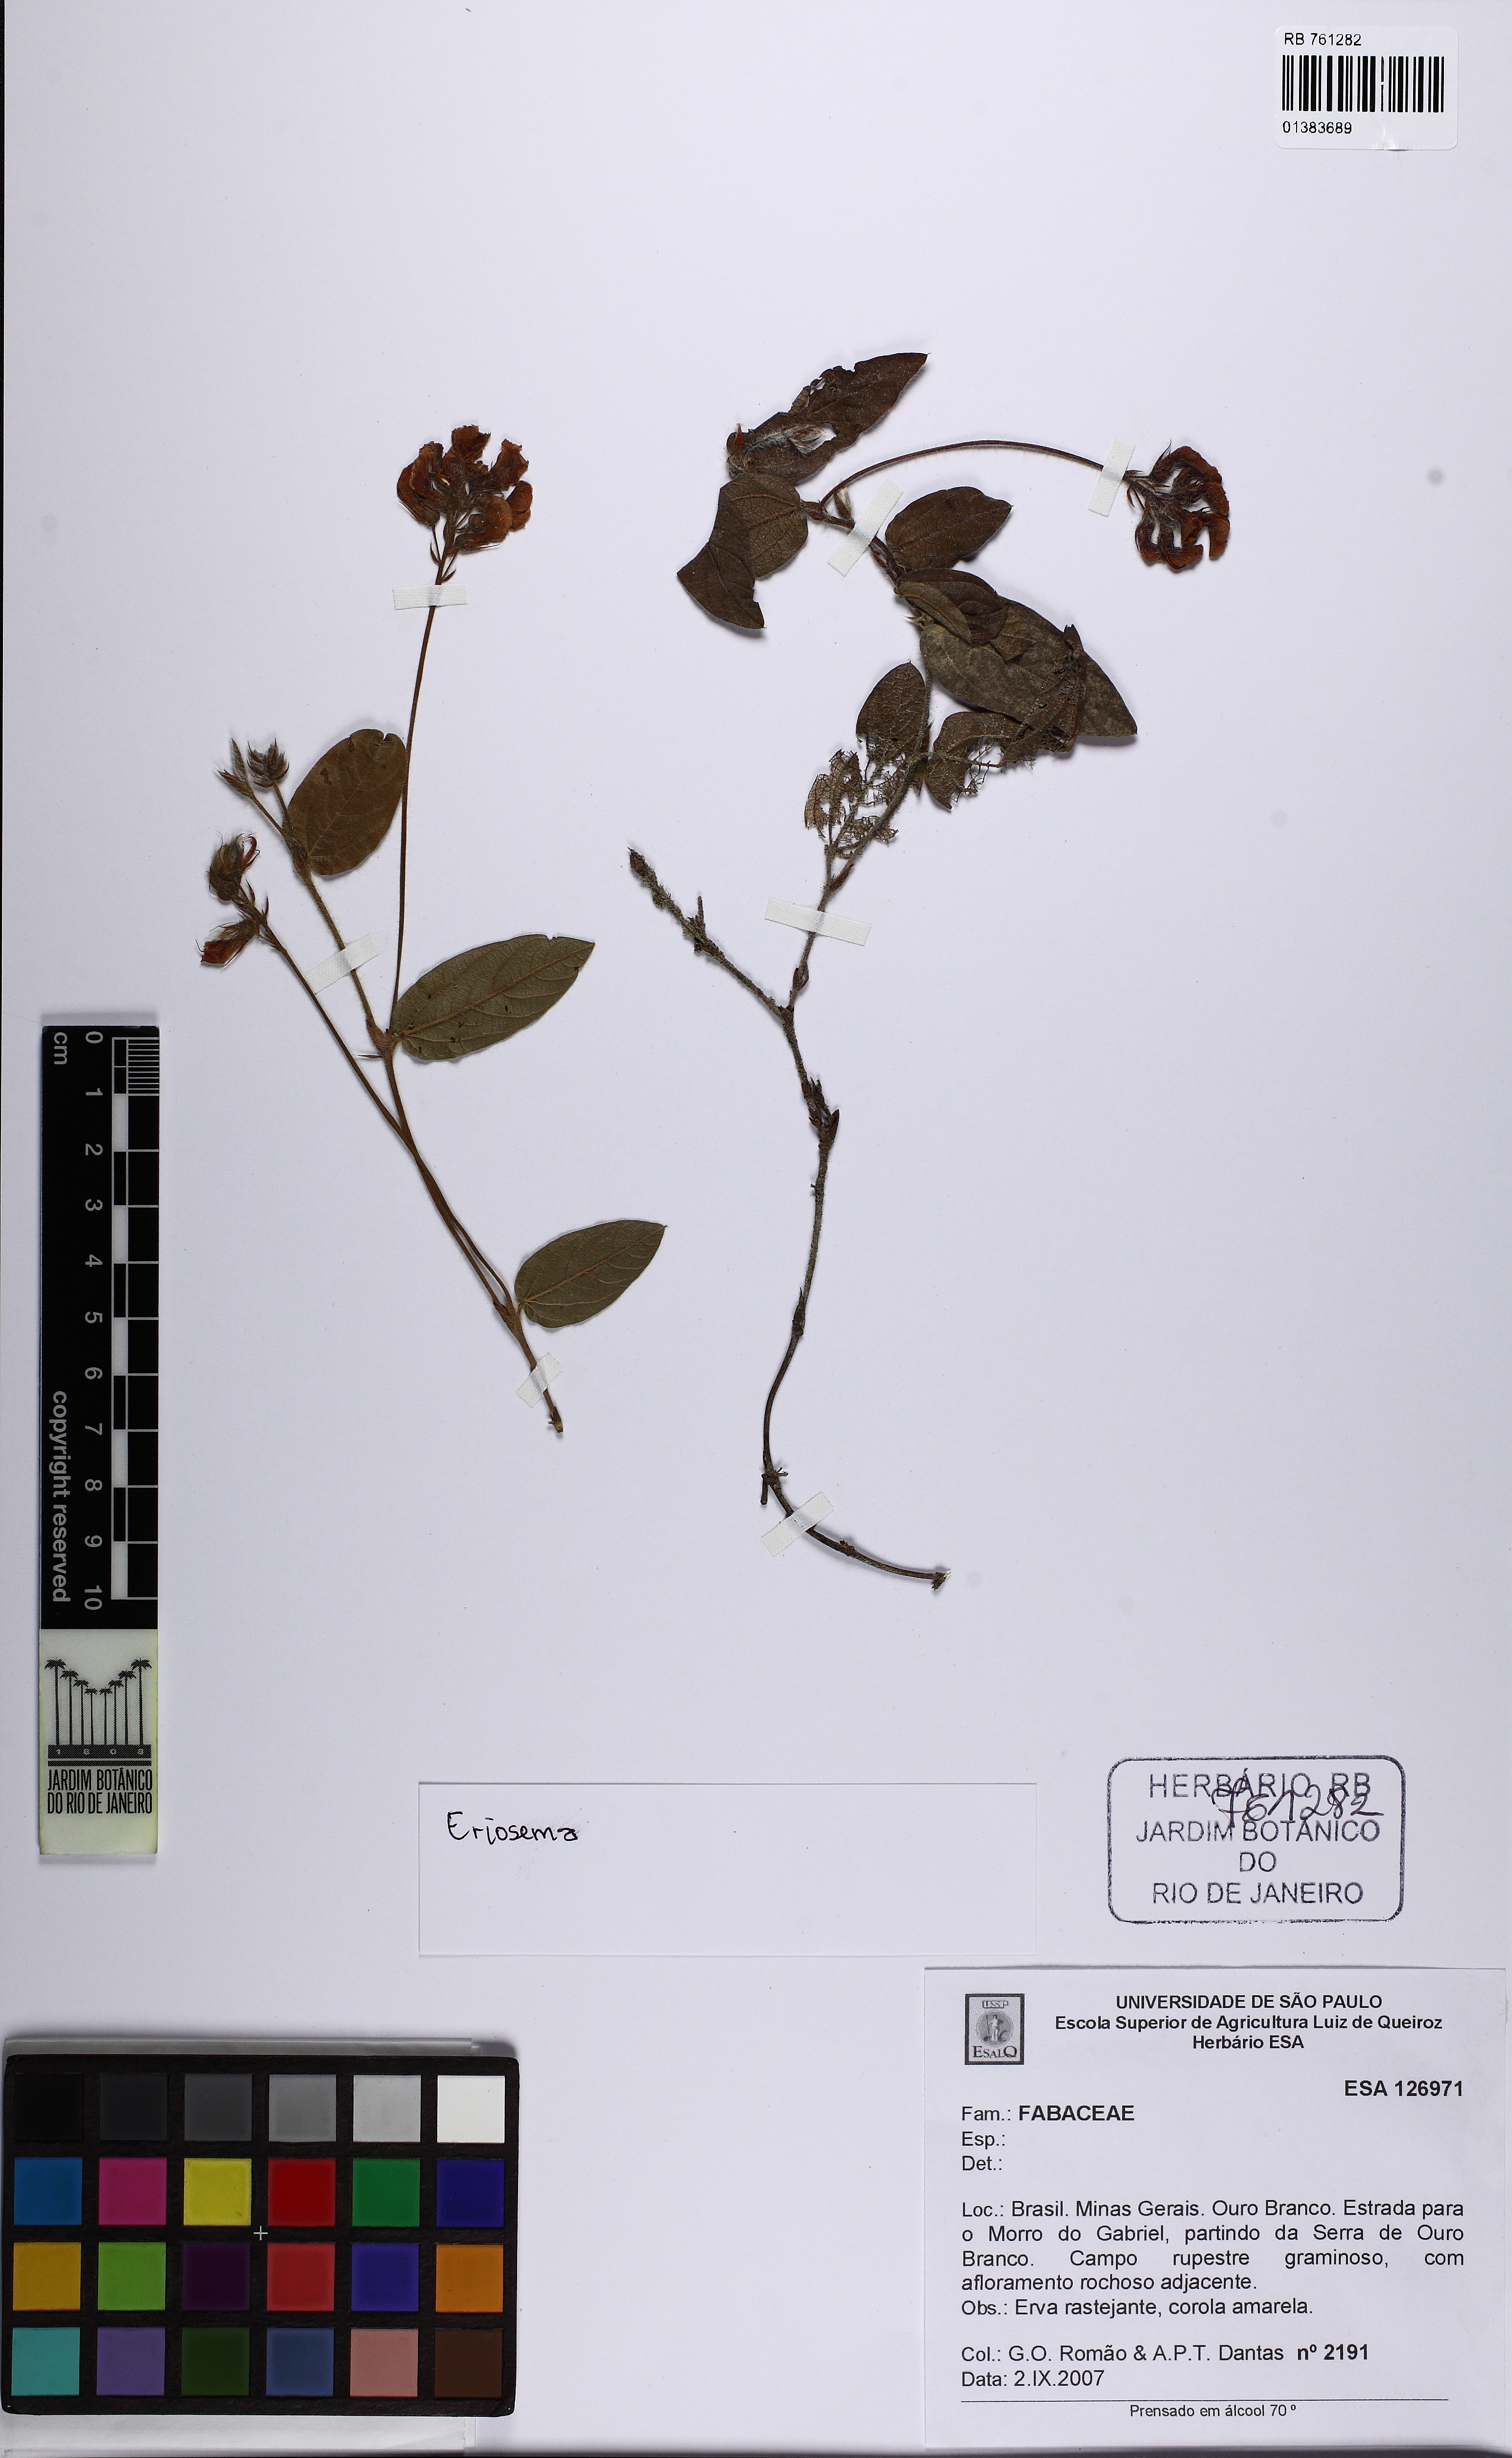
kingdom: Plantae
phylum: Tracheophyta
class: Magnoliopsida
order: Fabales
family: Fabaceae
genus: Eriosema
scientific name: Eriosema
